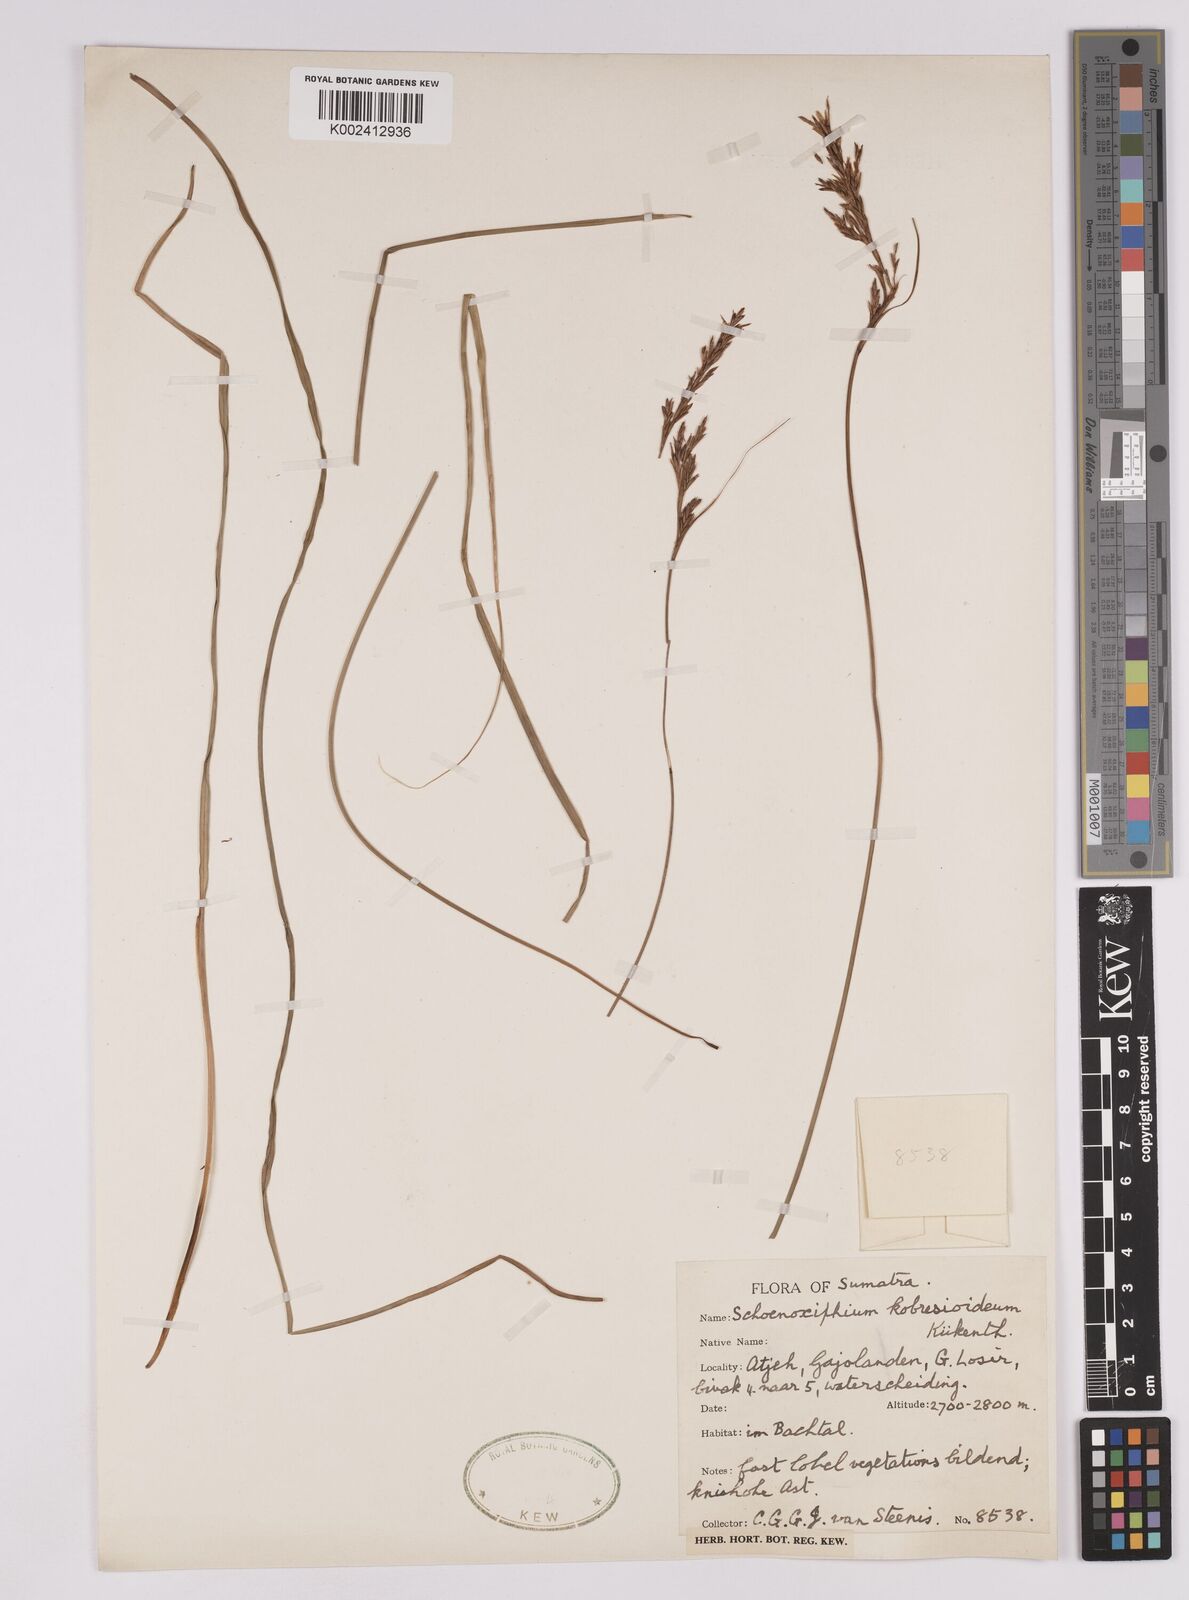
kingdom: Plantae
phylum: Tracheophyta
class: Liliopsida
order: Poales
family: Cyperaceae
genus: Carex
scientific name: Carex kobresioidea
